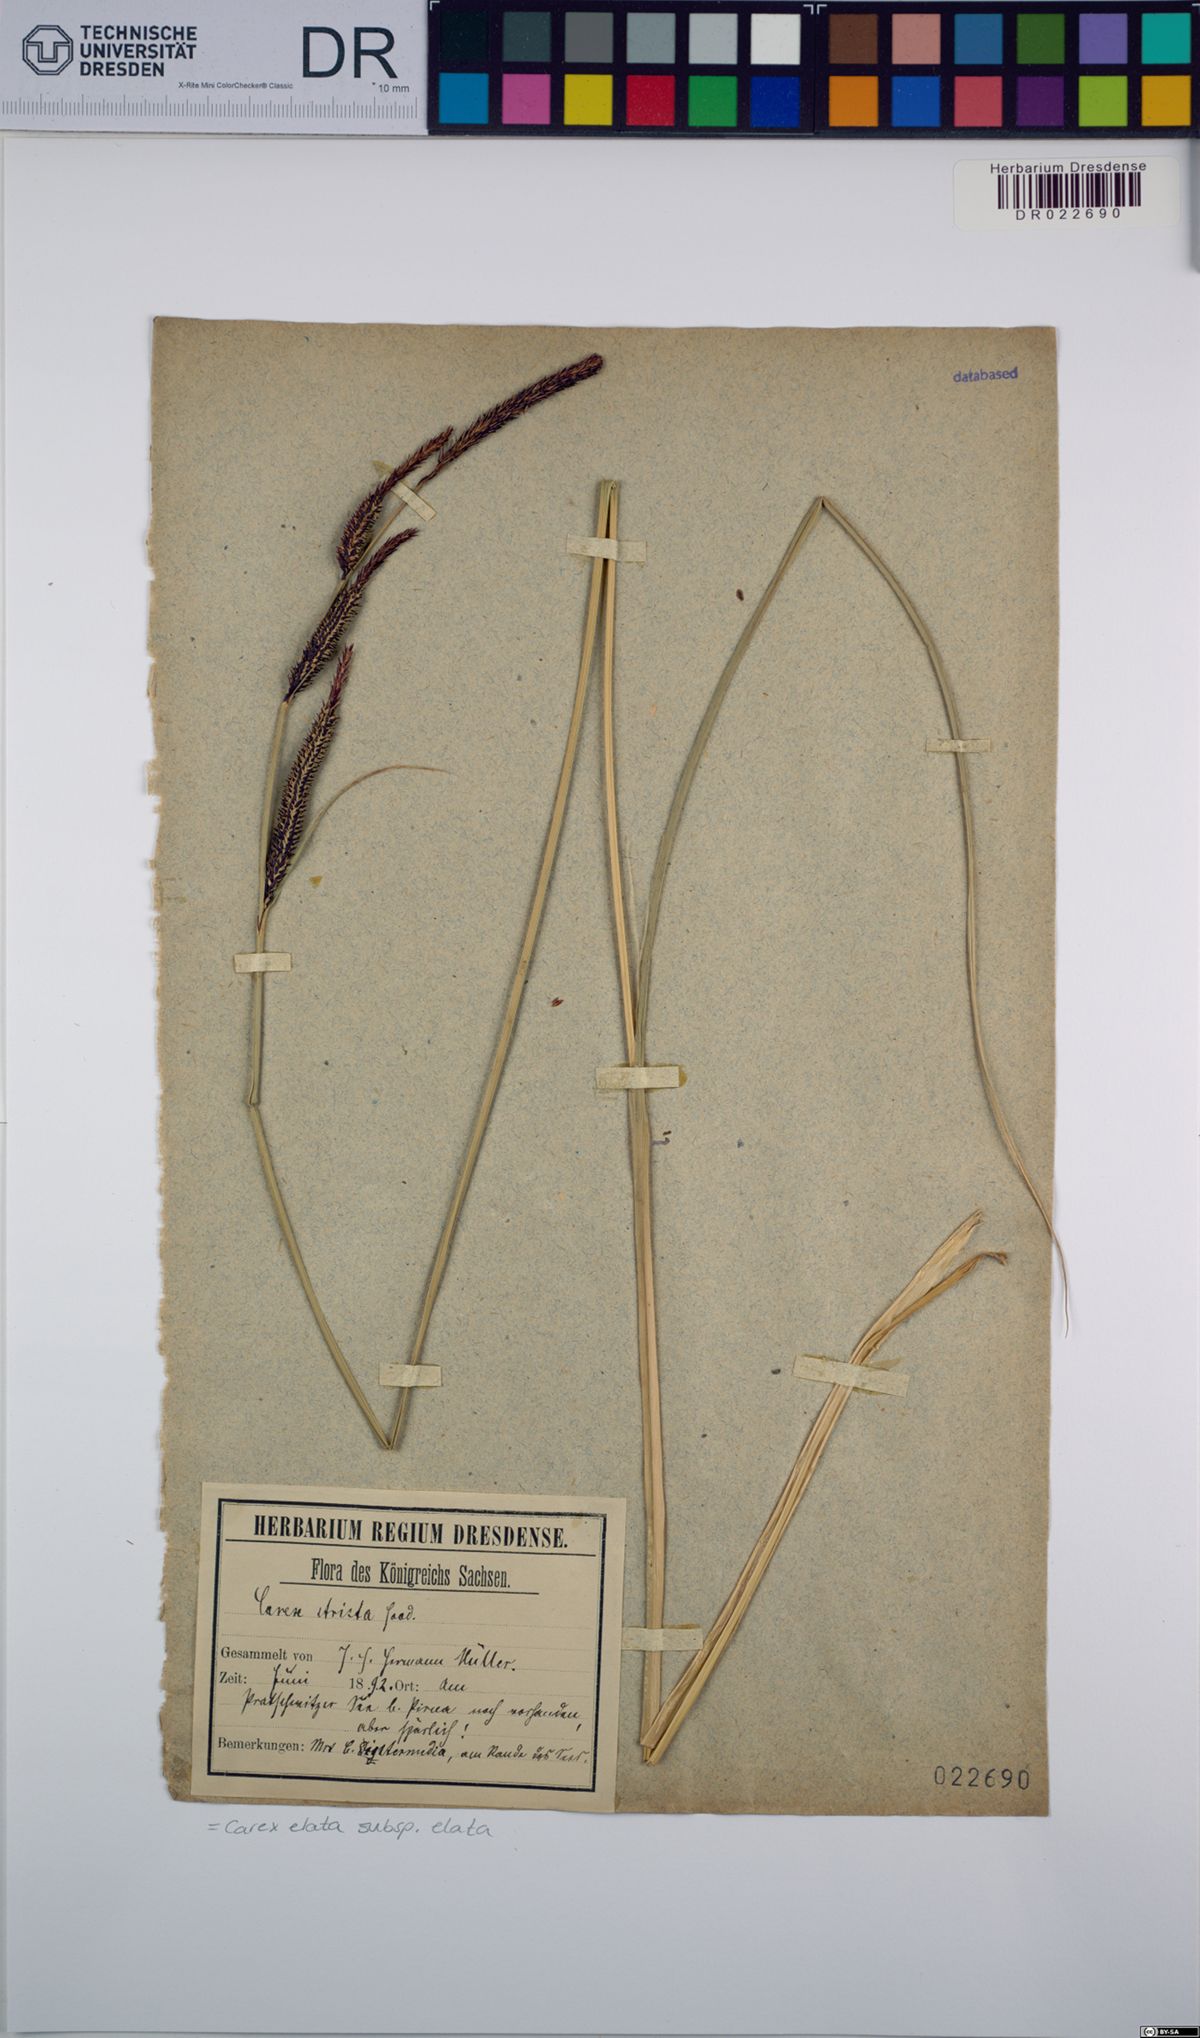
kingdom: Plantae
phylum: Tracheophyta
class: Liliopsida
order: Poales
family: Cyperaceae
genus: Carex
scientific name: Carex elata
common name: Tufted sedge
